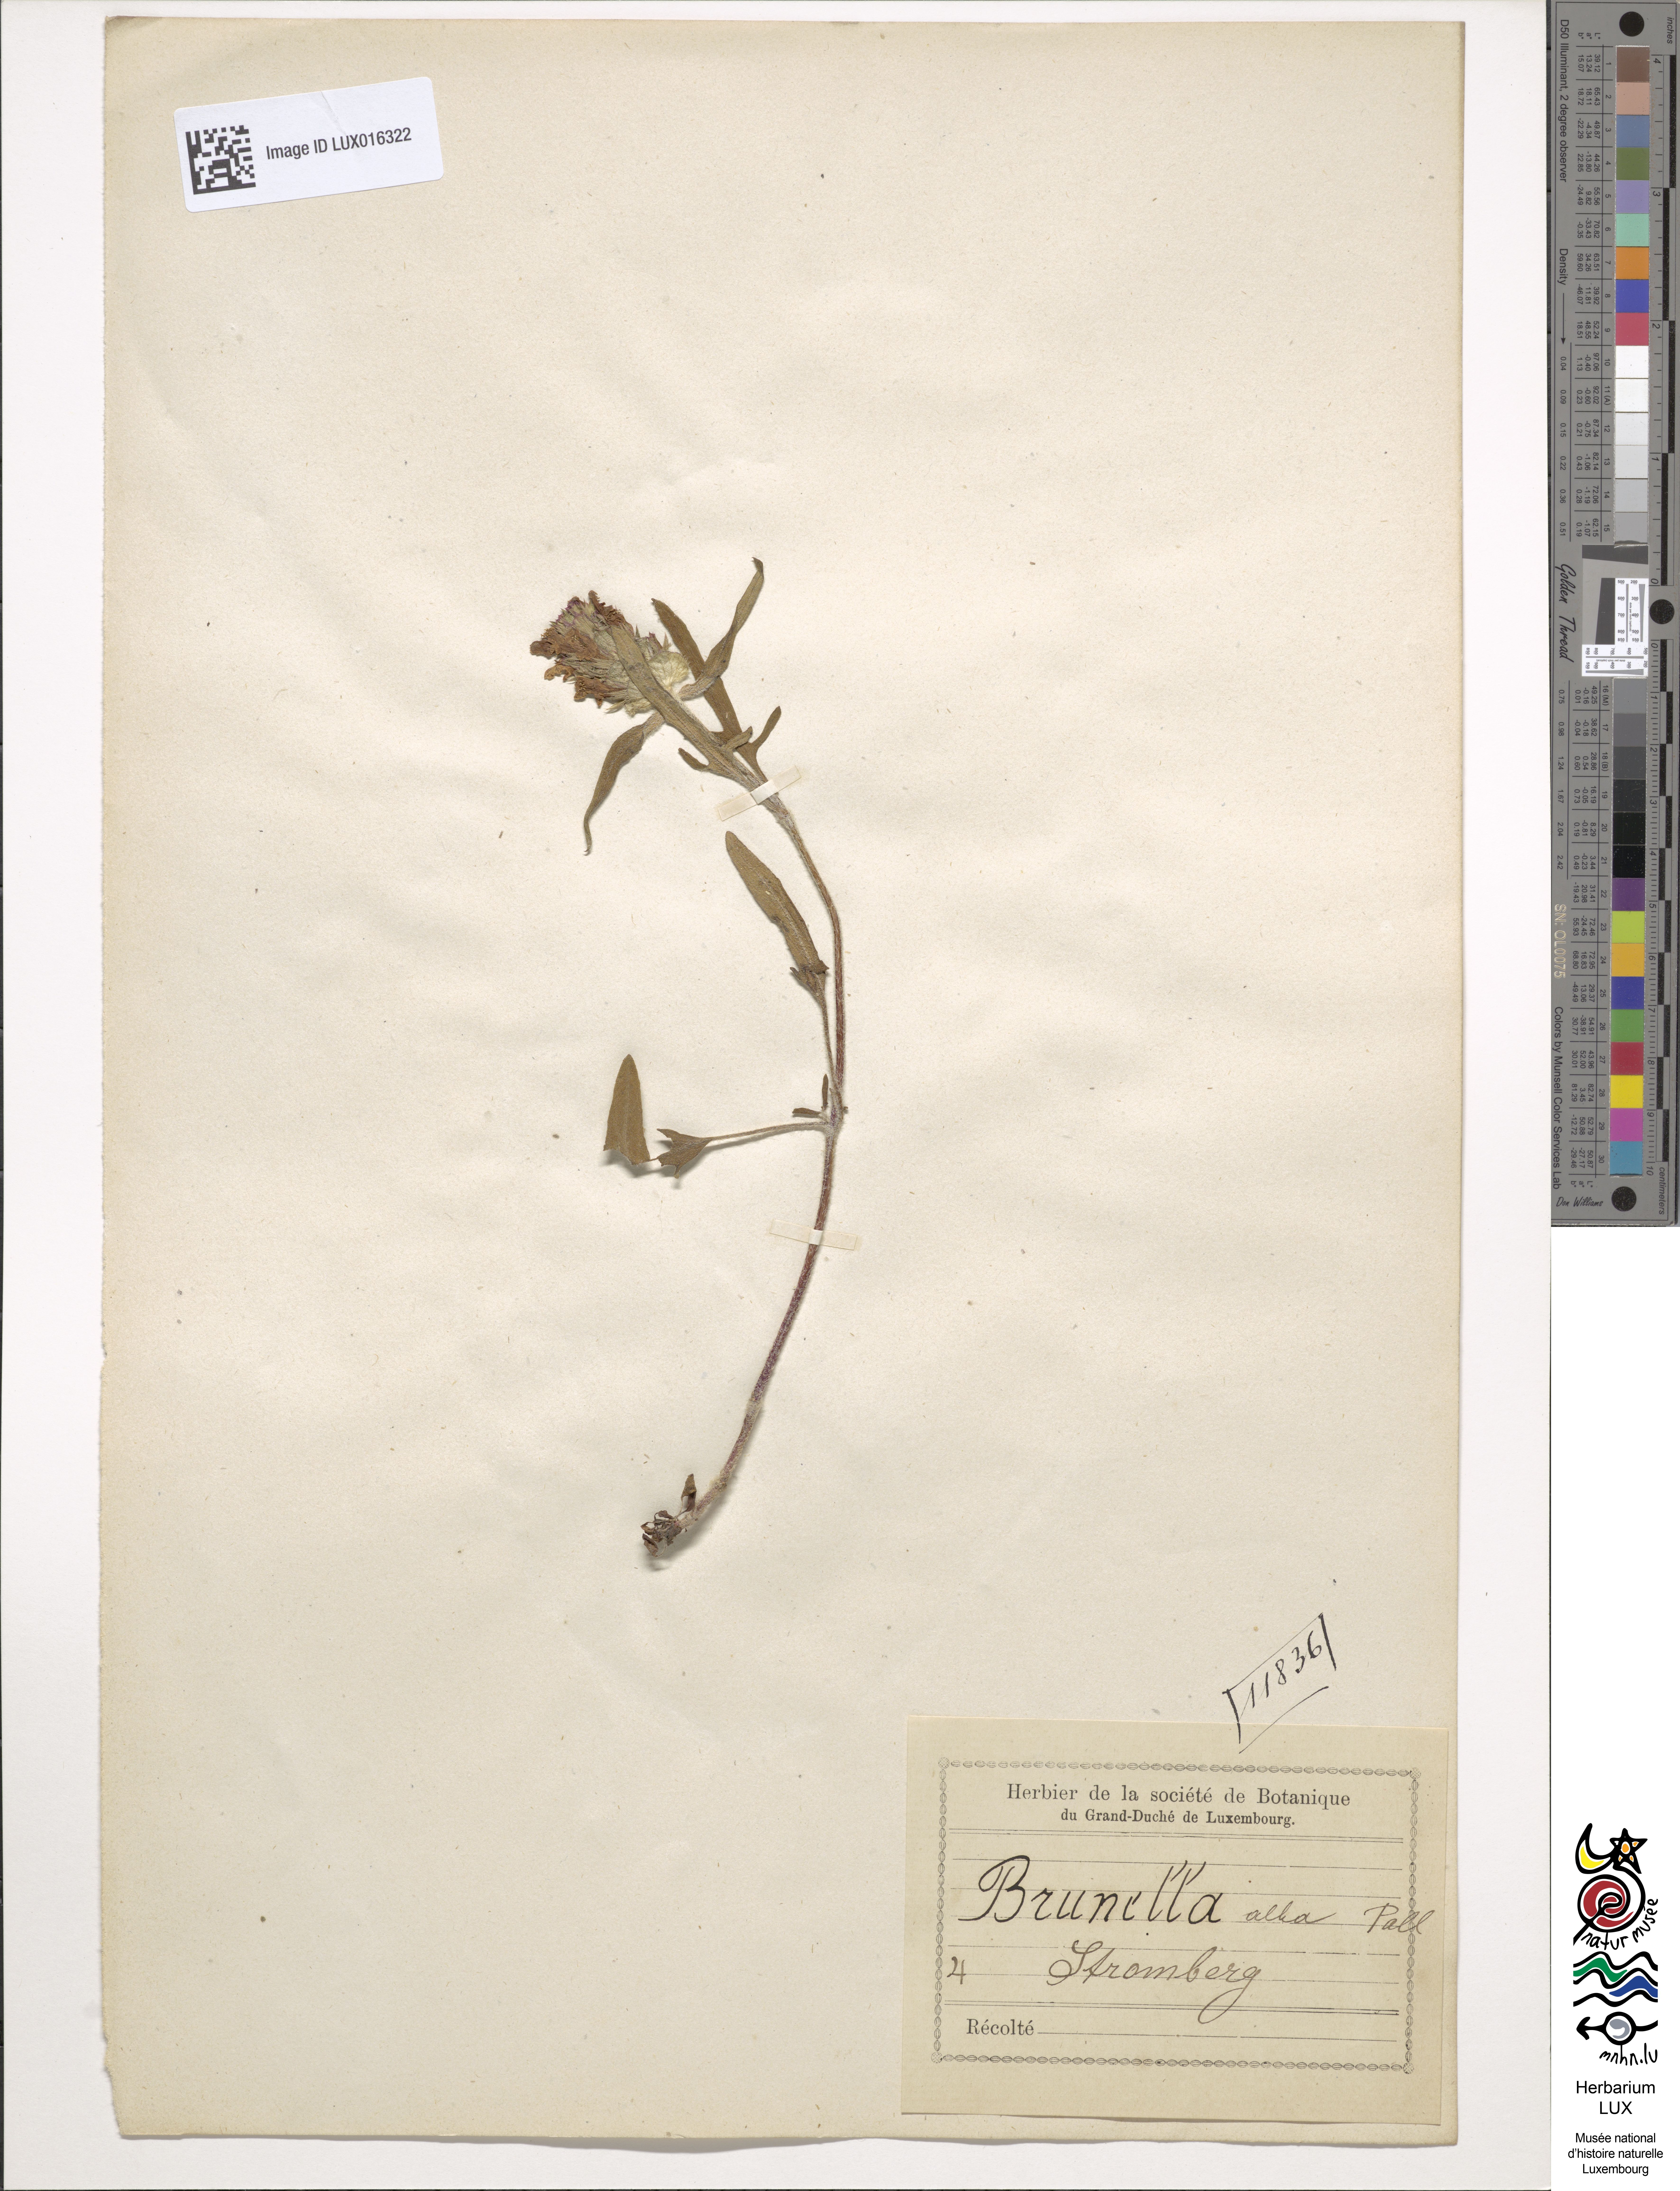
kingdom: Plantae
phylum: Tracheophyta
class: Magnoliopsida
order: Lamiales
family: Lamiaceae
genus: Prunella
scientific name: Prunella laciniata
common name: Cut-leaved selfheal
